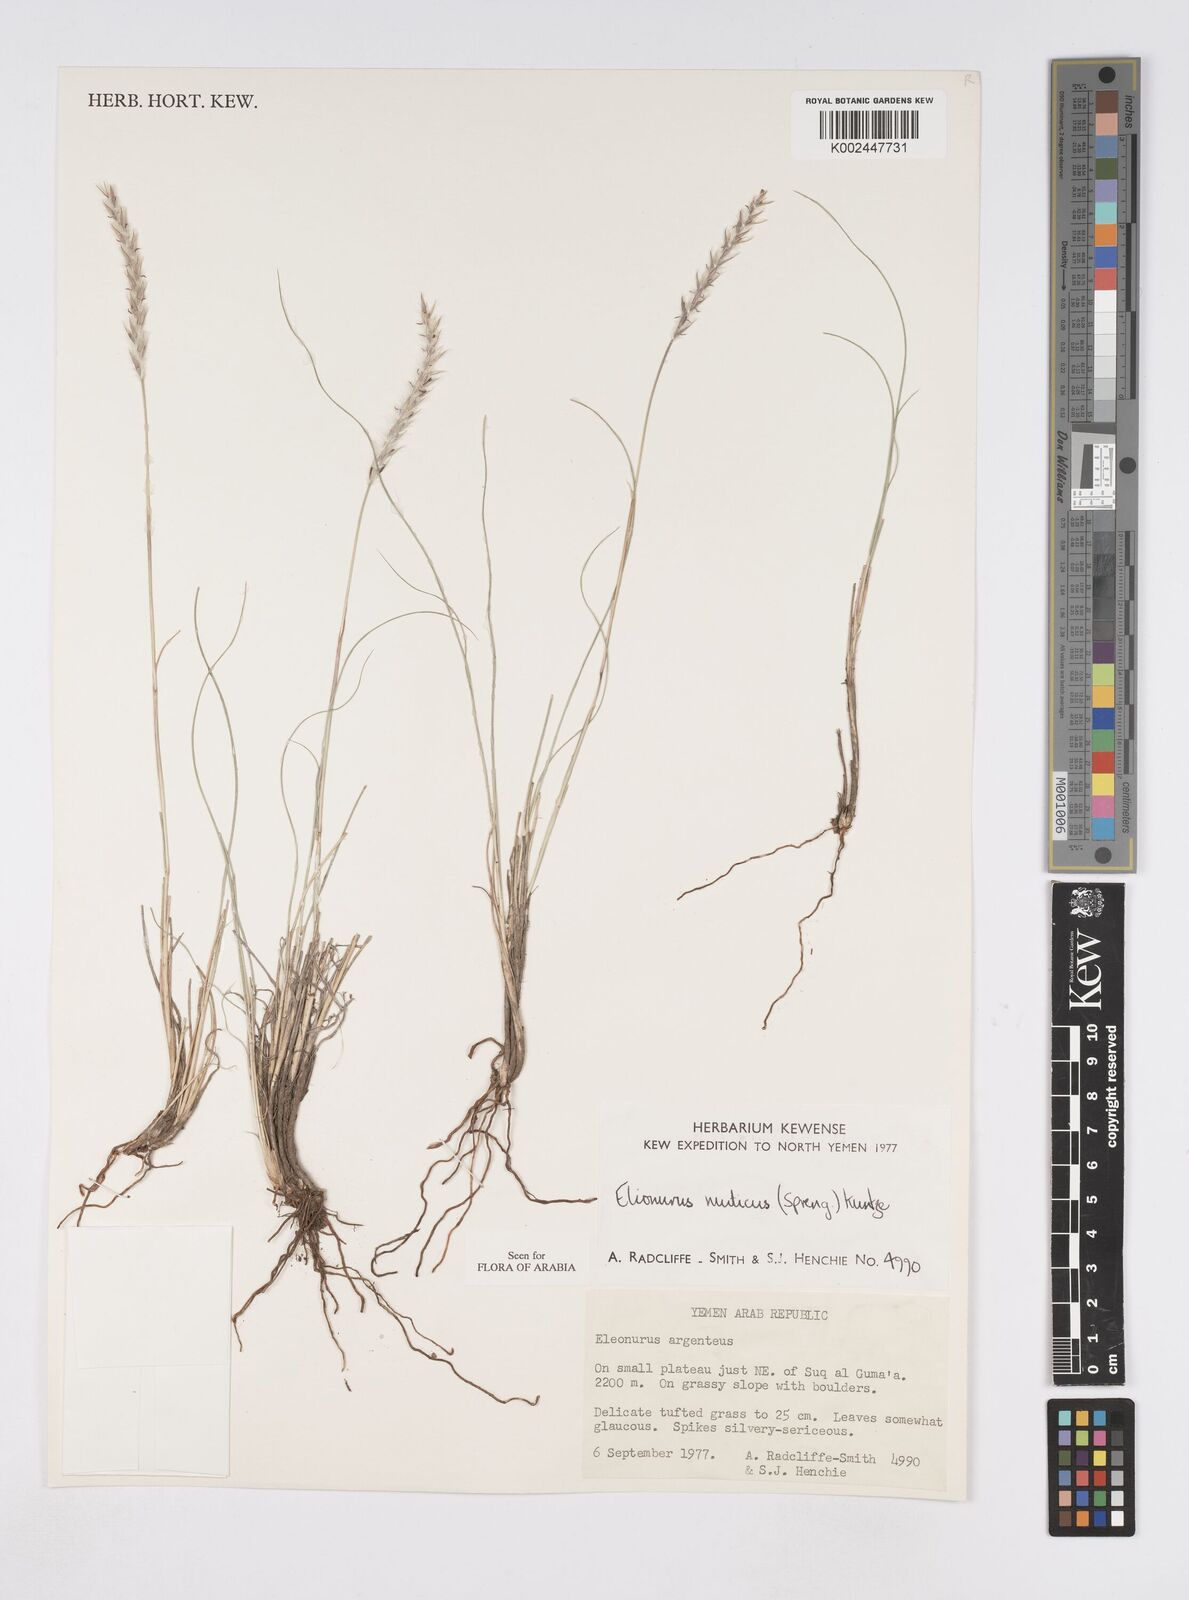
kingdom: Plantae
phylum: Tracheophyta
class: Liliopsida
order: Poales
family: Poaceae
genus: Elionurus
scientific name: Elionurus muticus
